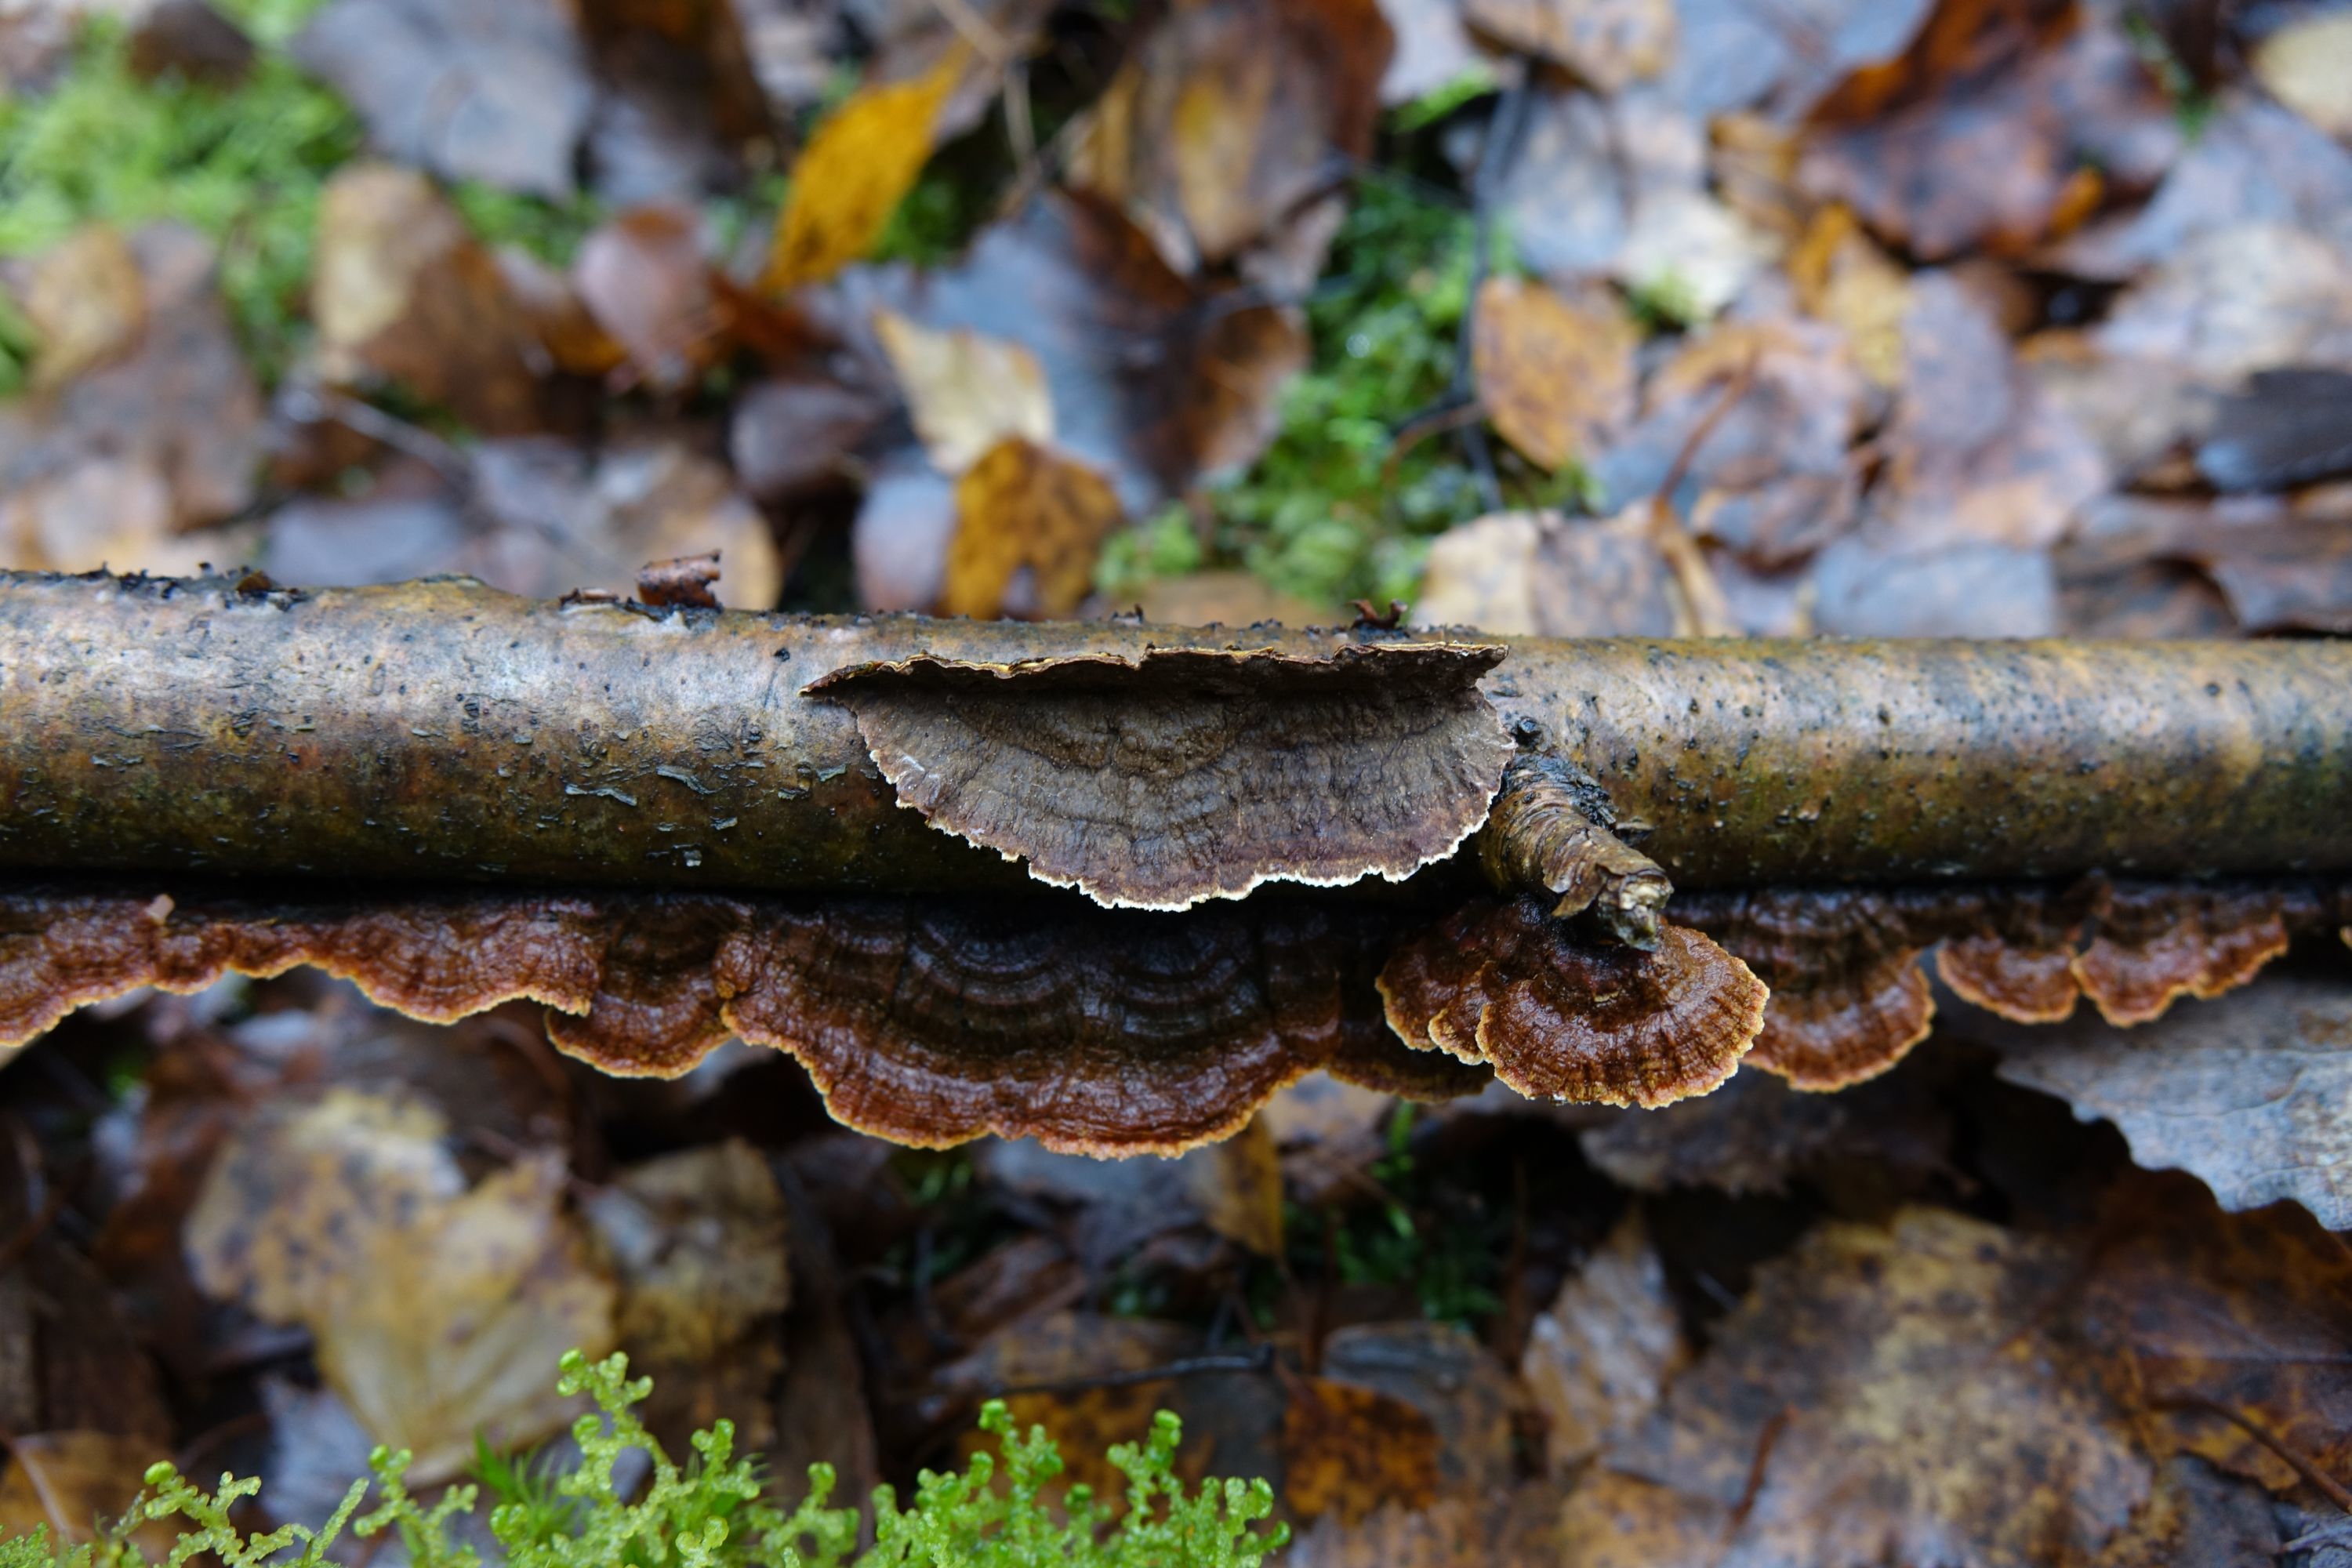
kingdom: Fungi
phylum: Basidiomycota
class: Agaricomycetes
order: Hymenochaetales
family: Hymenochaetaceae
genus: Hydnoporia
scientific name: Hydnoporia tabacina
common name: Willow glue
